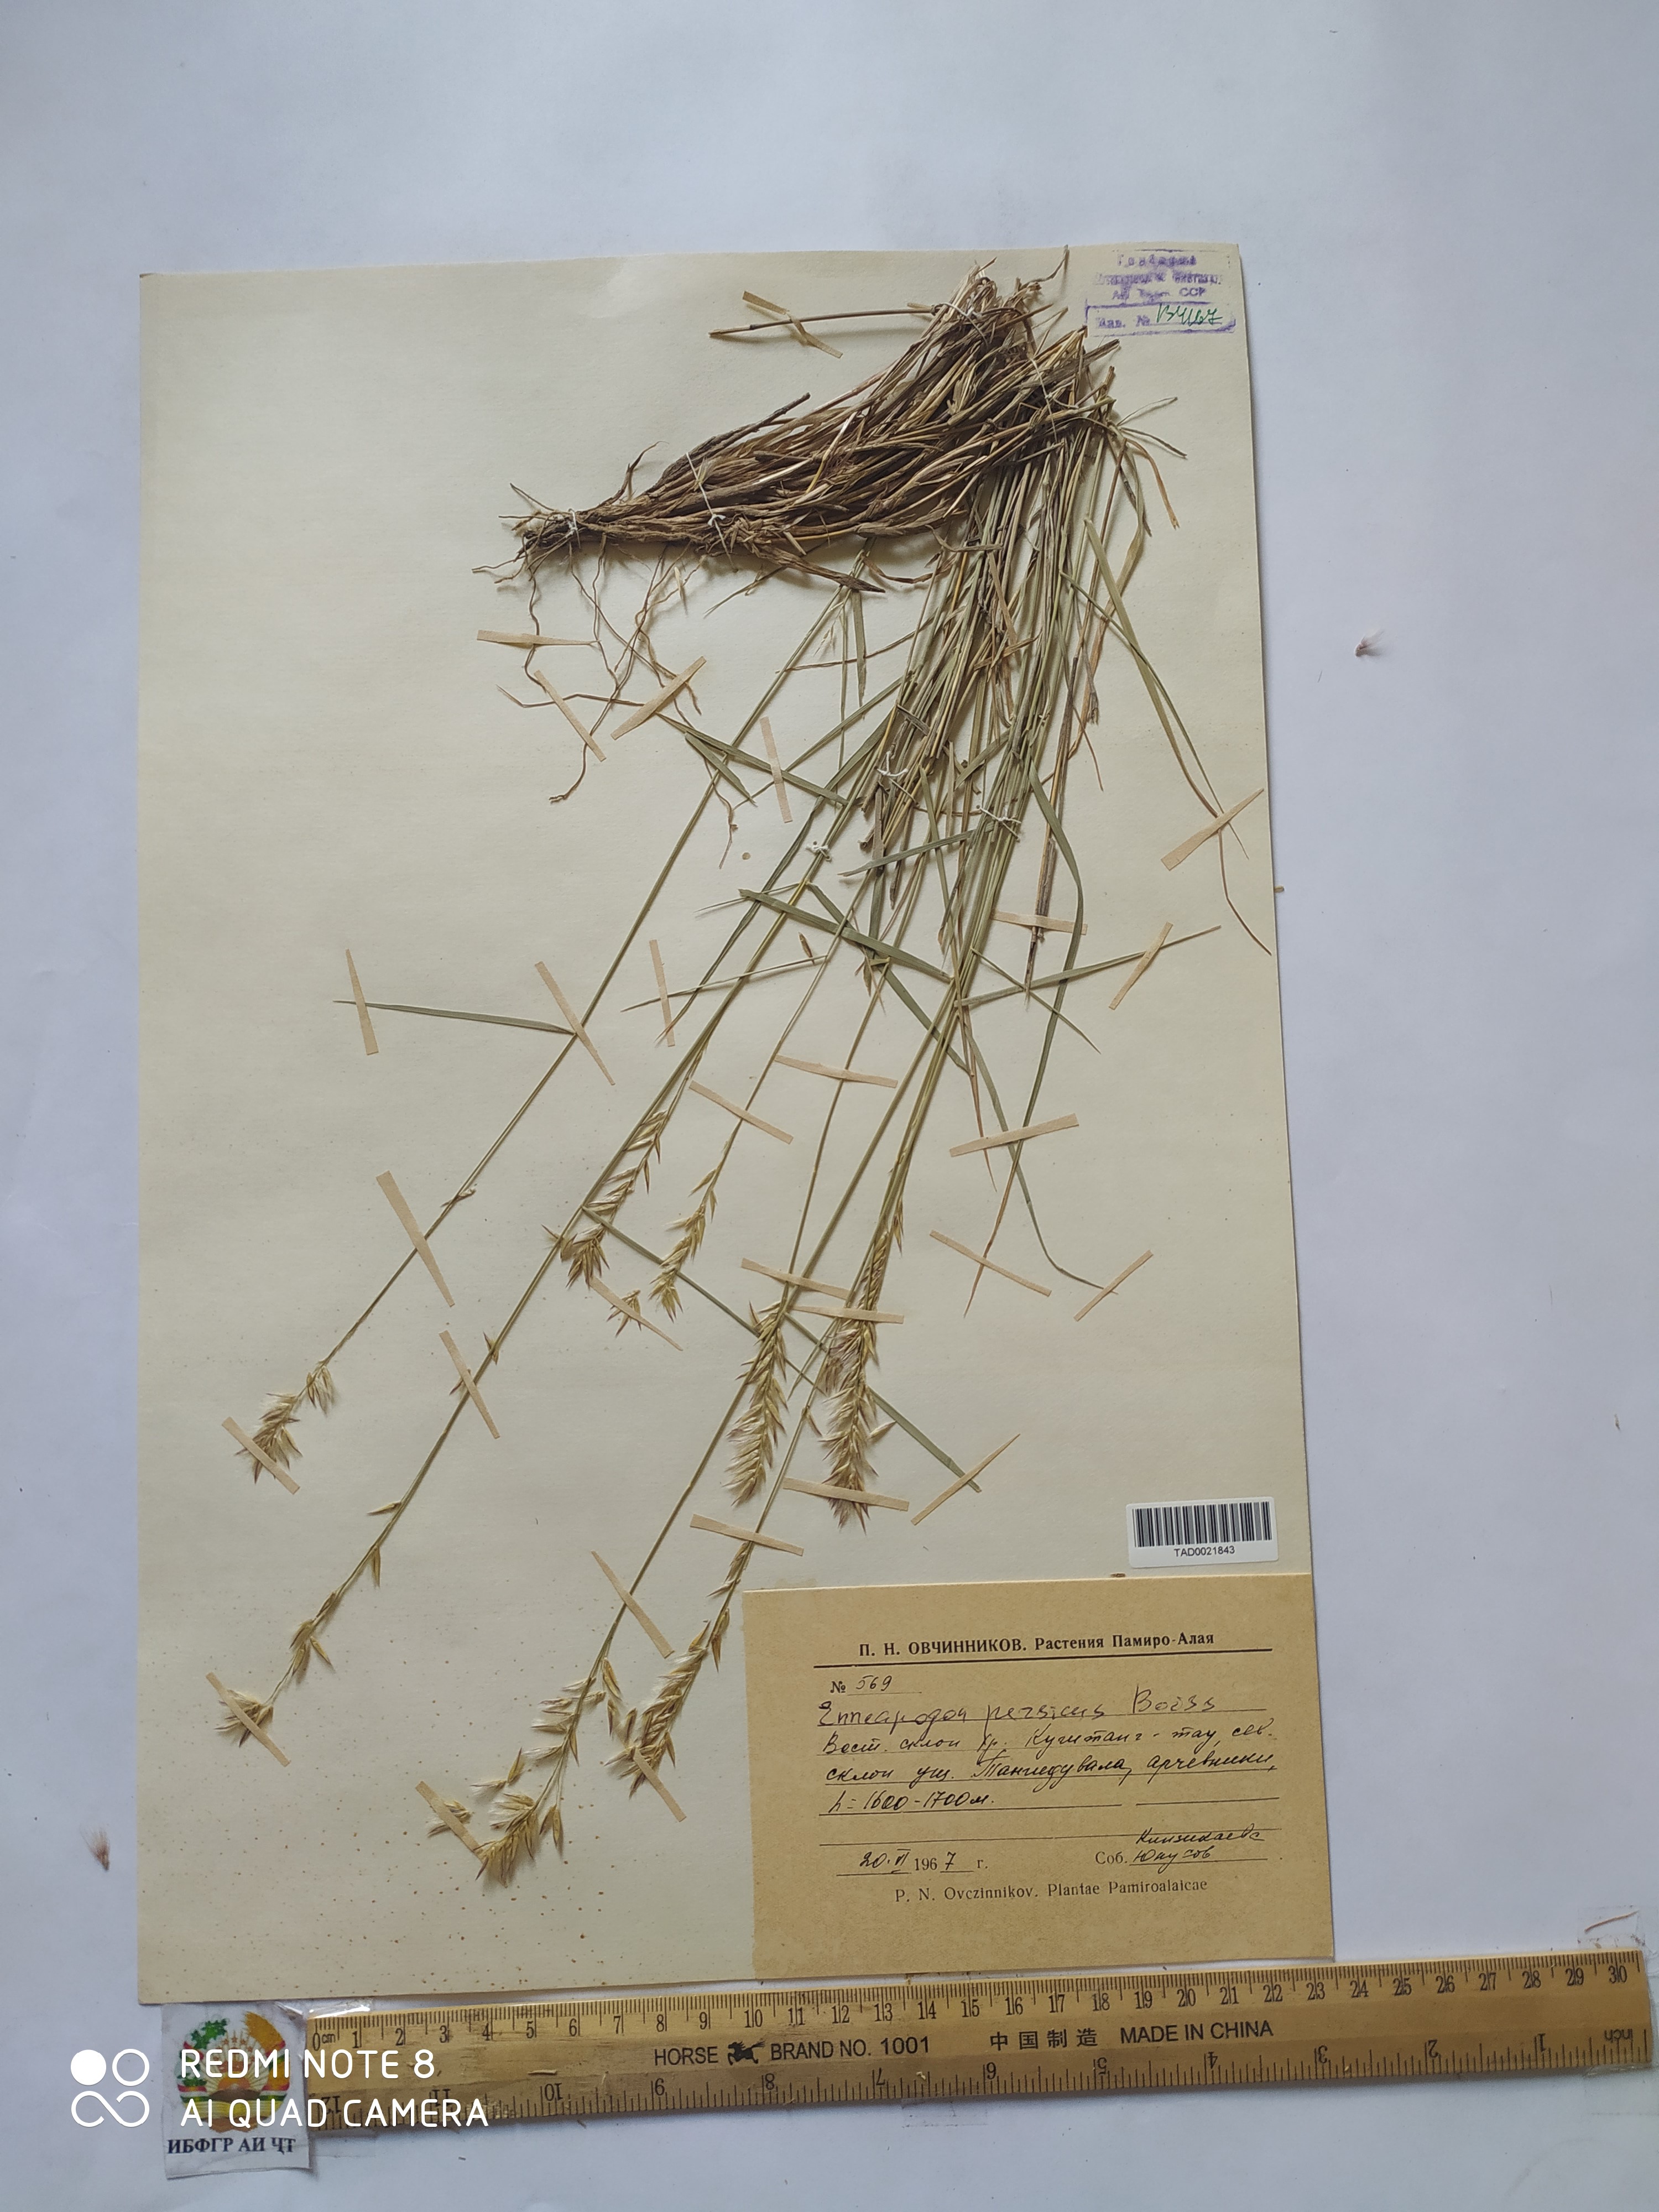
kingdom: Plantae
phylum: Tracheophyta
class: Liliopsida
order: Poales
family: Poaceae
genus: Enneapogon
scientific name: Enneapogon persicus
